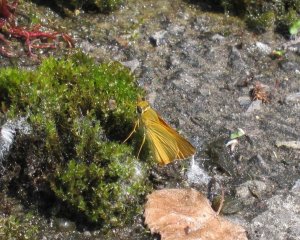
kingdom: Animalia
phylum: Arthropoda
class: Insecta
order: Lepidoptera
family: Hesperiidae
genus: Atrytone
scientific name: Atrytone delaware
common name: Delaware Skipper
